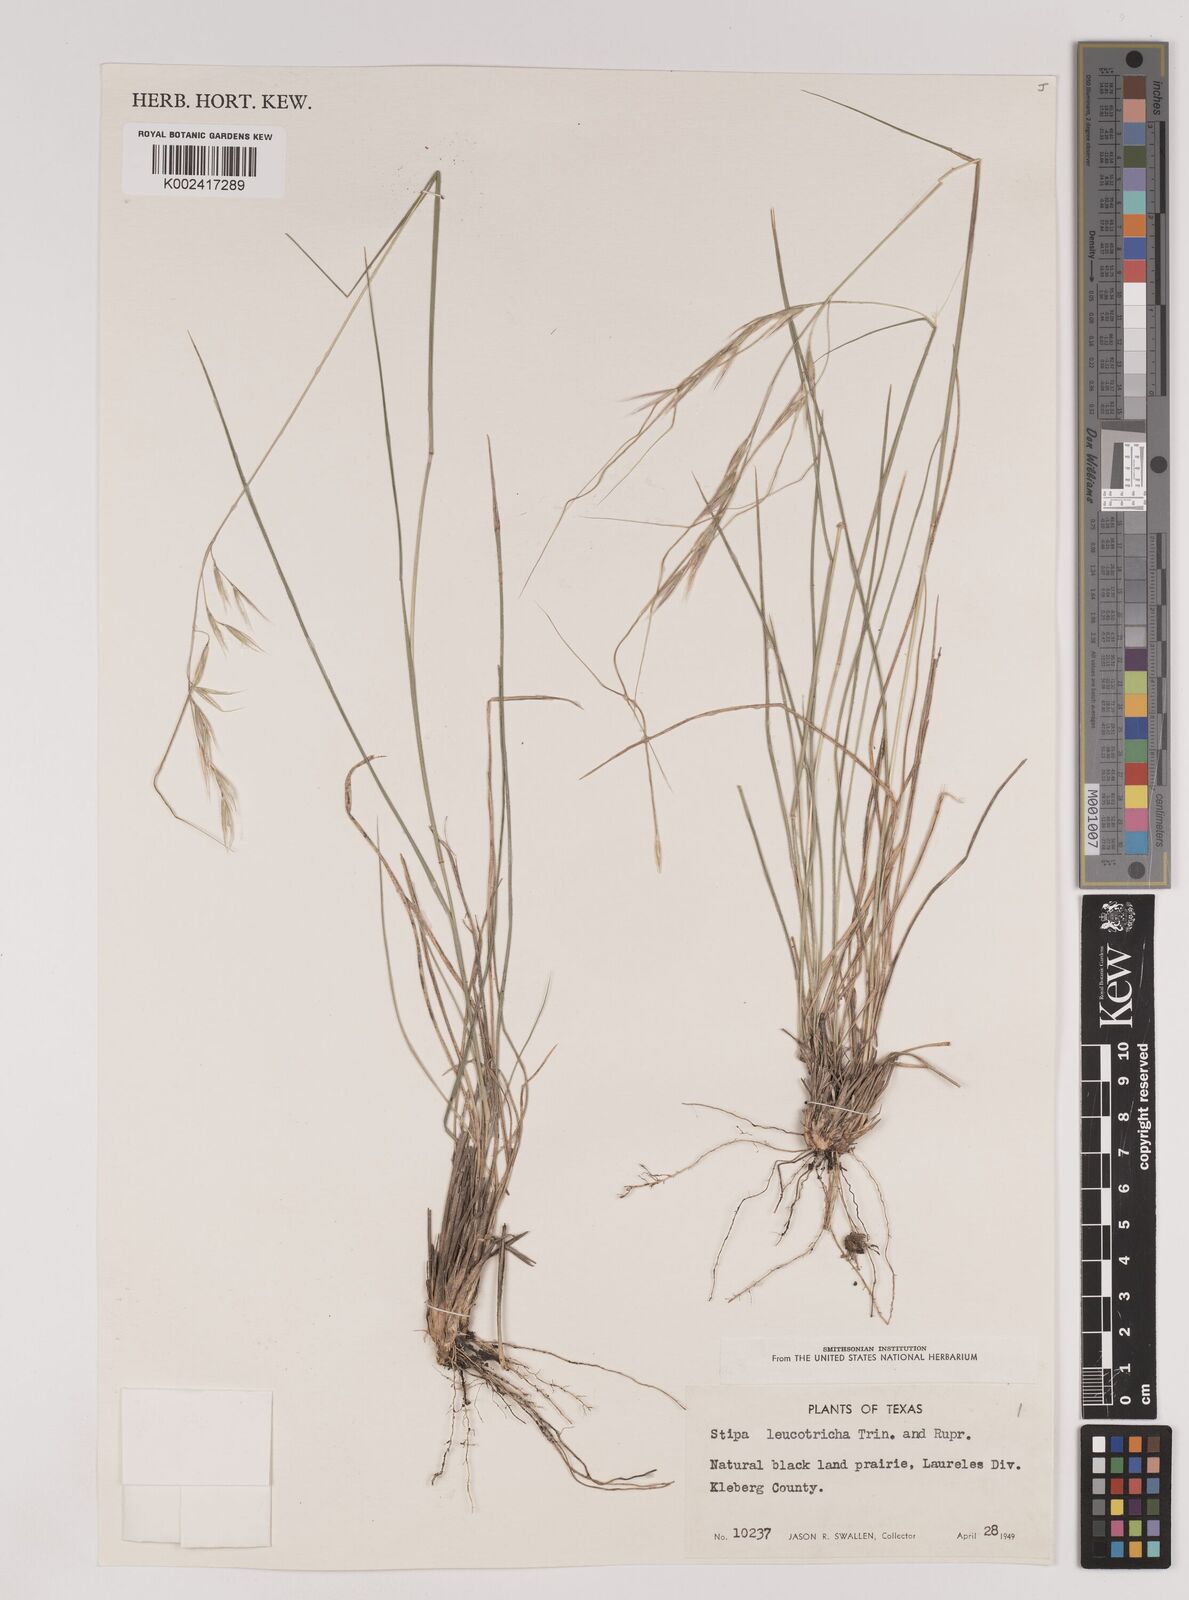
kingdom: Plantae
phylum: Tracheophyta
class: Liliopsida
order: Poales
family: Poaceae
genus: Nassella
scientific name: Nassella leucotricha
